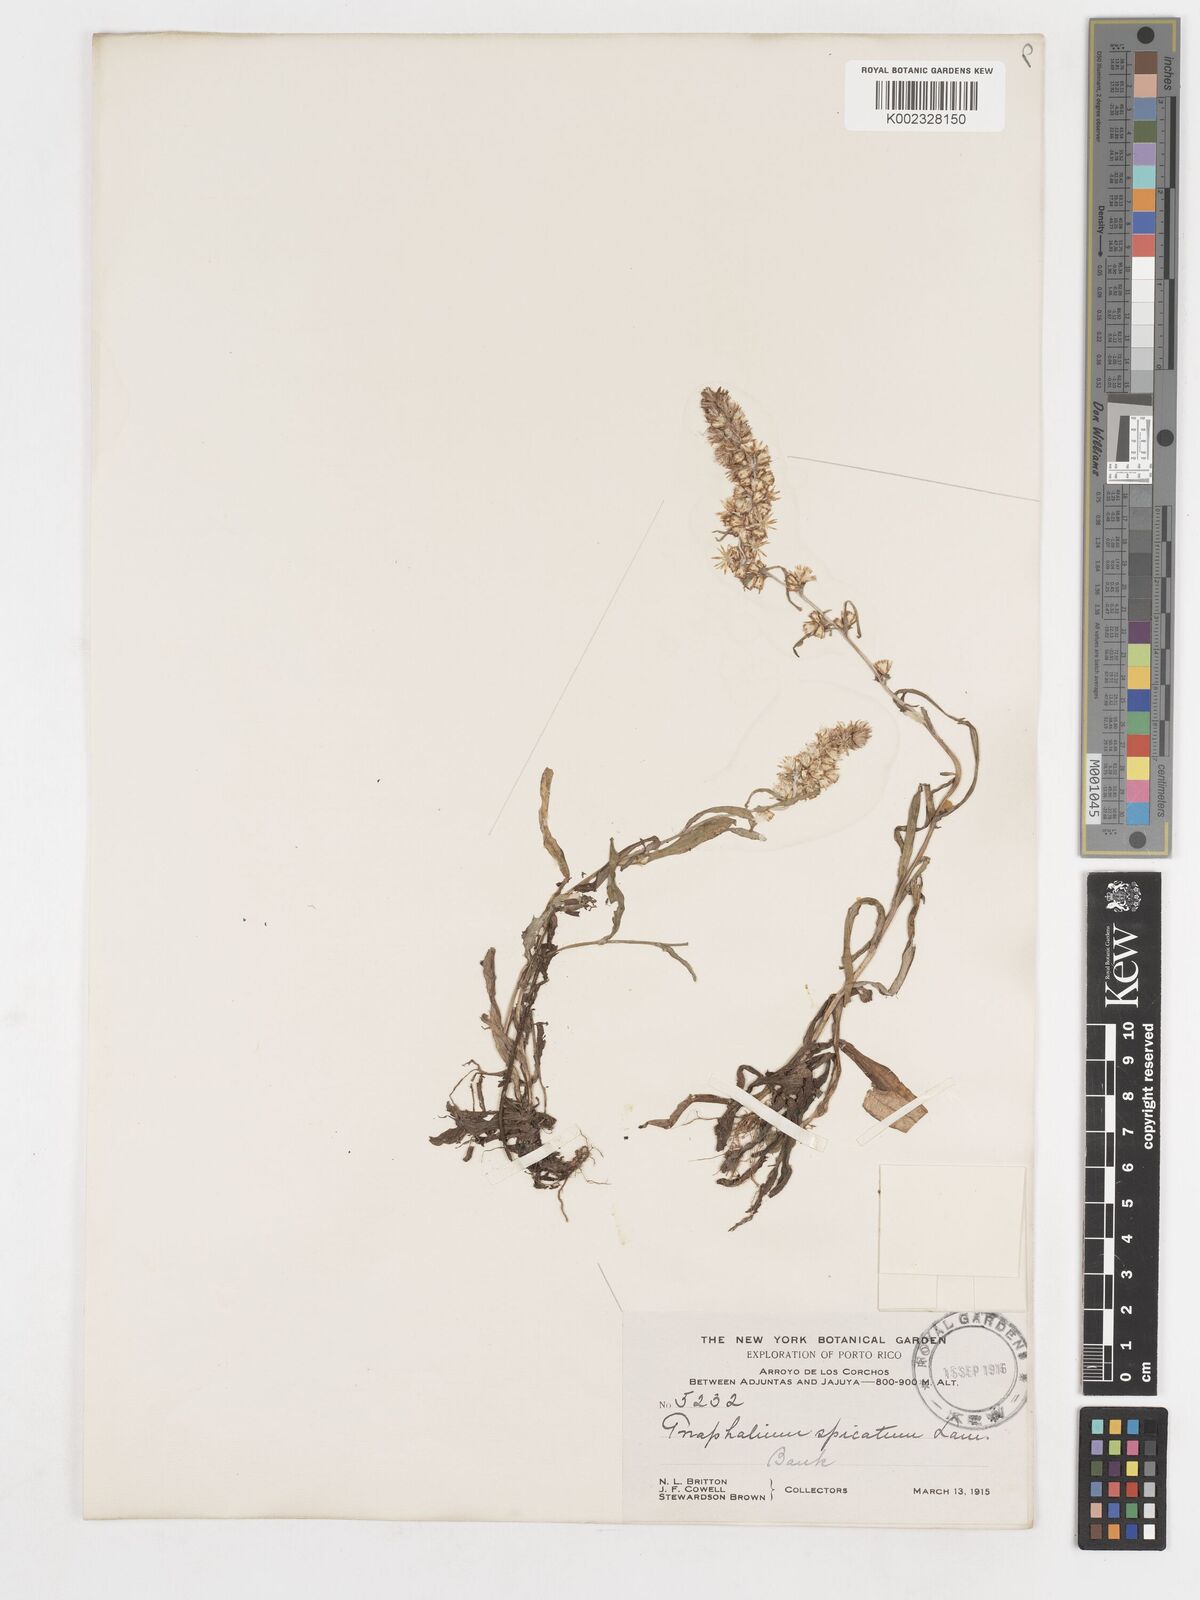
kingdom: Plantae
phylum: Tracheophyta
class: Magnoliopsida
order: Asterales
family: Asteraceae
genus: Gamochaeta
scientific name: Gamochaeta americana
